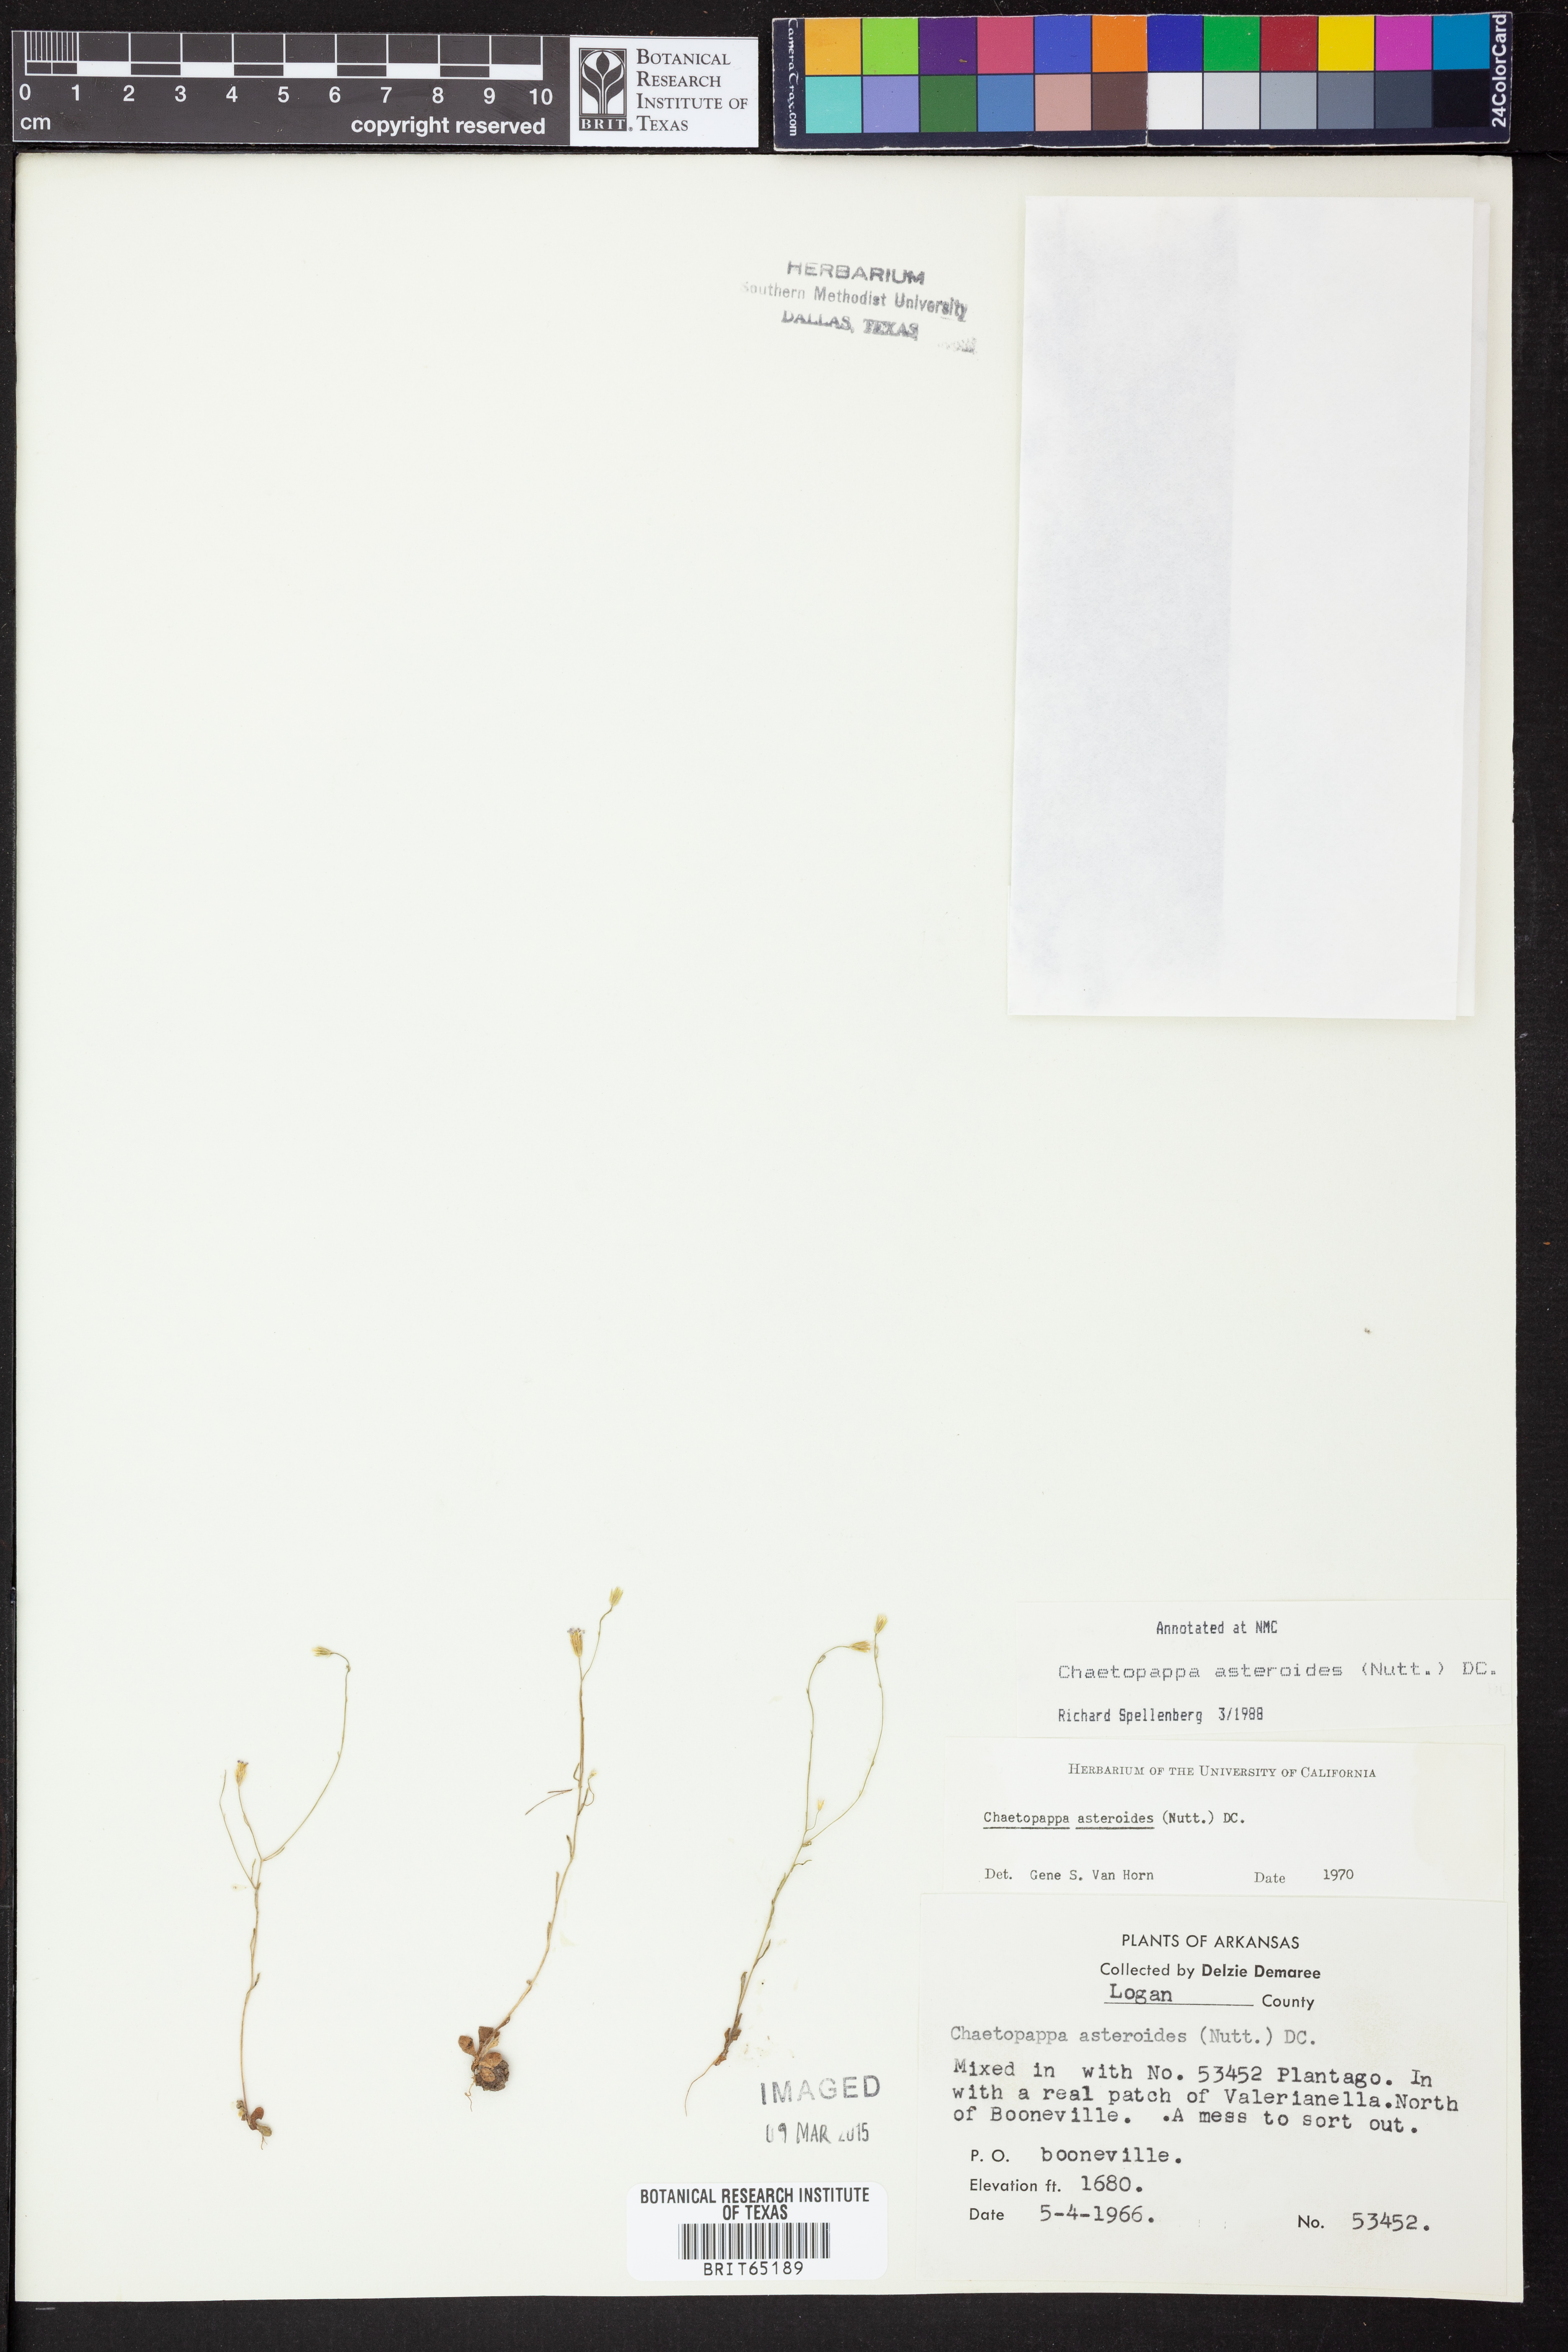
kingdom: Plantae
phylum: Tracheophyta
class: Magnoliopsida
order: Asterales
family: Asteraceae
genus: Chaetopappa
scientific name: Chaetopappa asteroides
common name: Tiny lazy daisy
